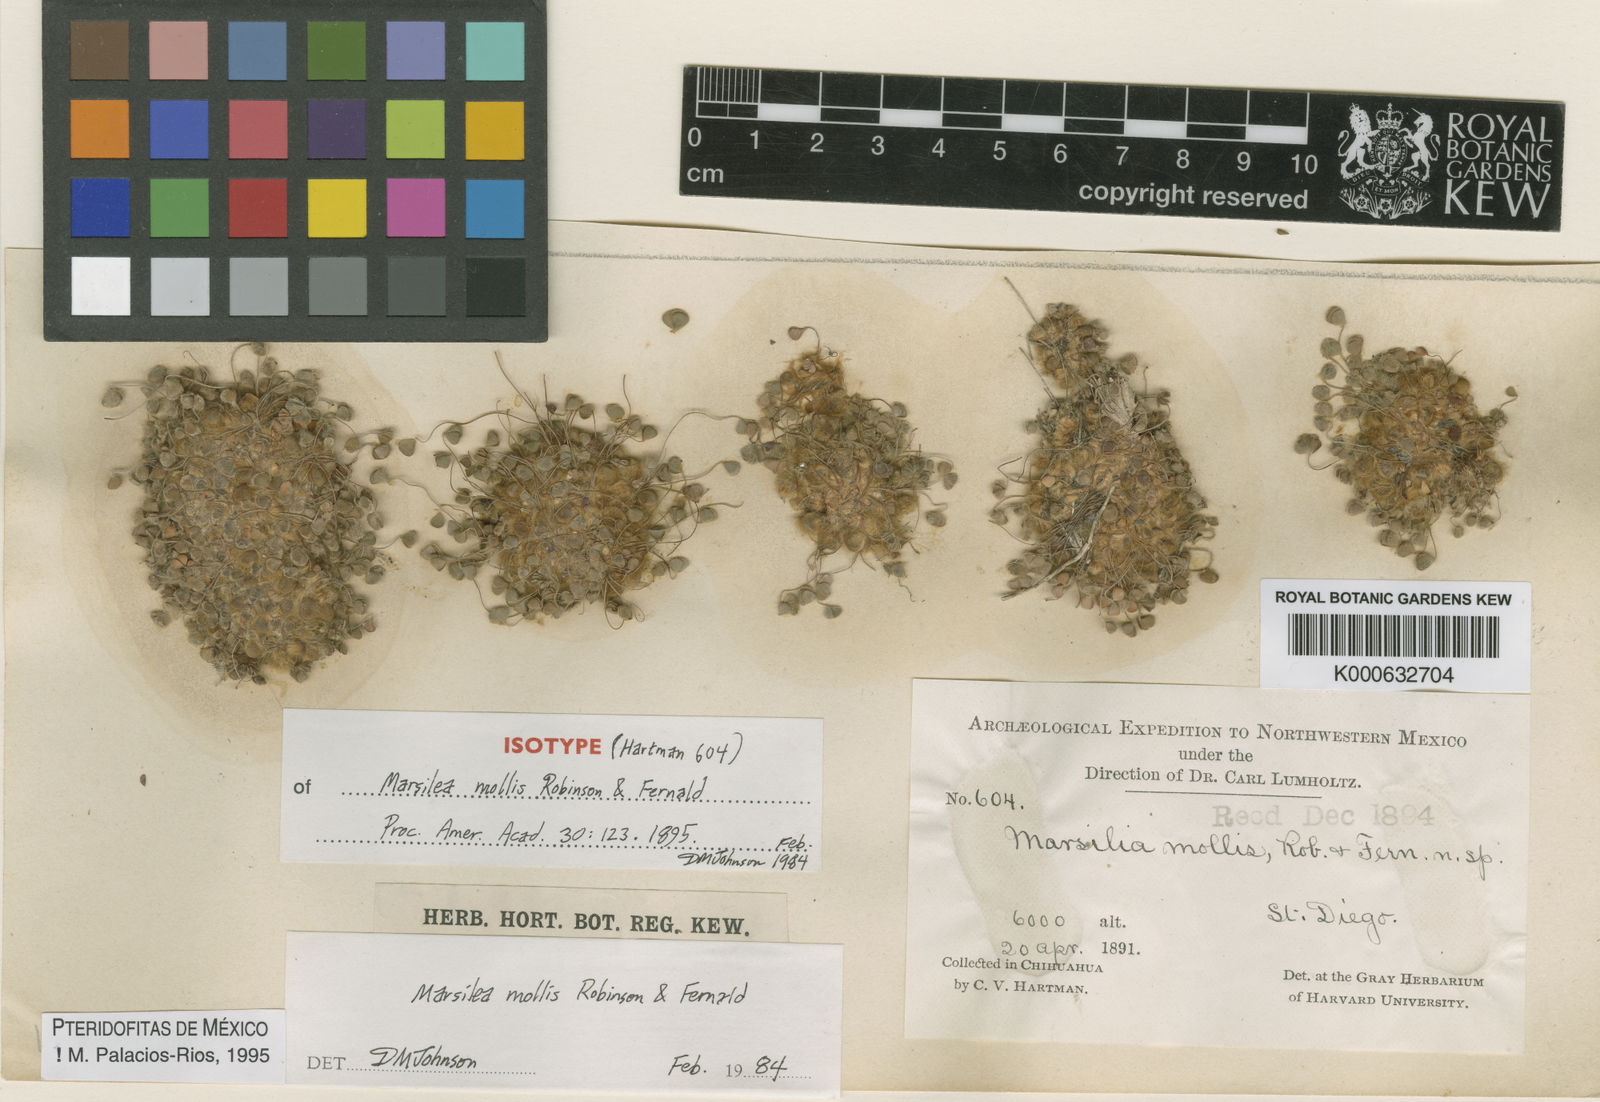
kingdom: Plantae
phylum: Tracheophyta
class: Polypodiopsida
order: Salviniales
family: Marsileaceae
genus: Marsilea
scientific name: Marsilea mollis
